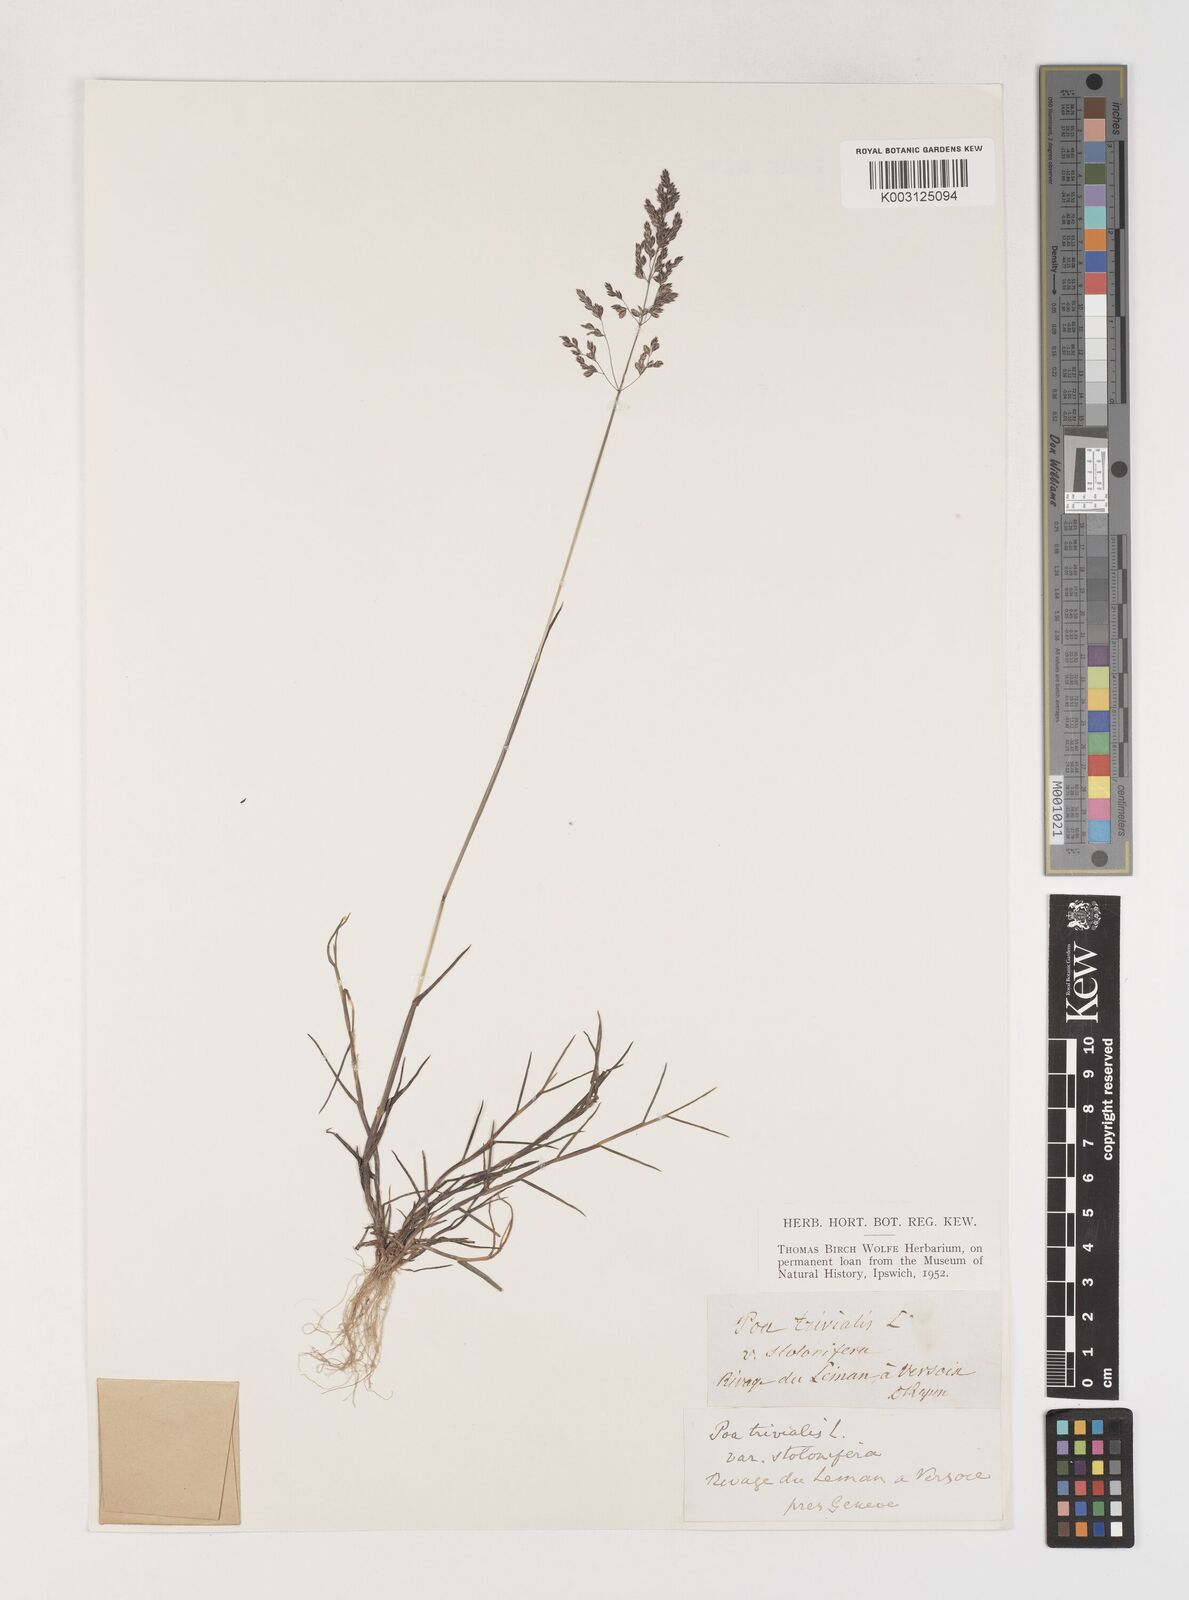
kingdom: Plantae
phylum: Tracheophyta
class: Liliopsida
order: Poales
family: Poaceae
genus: Poa
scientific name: Poa trivialis
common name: Rough bluegrass
